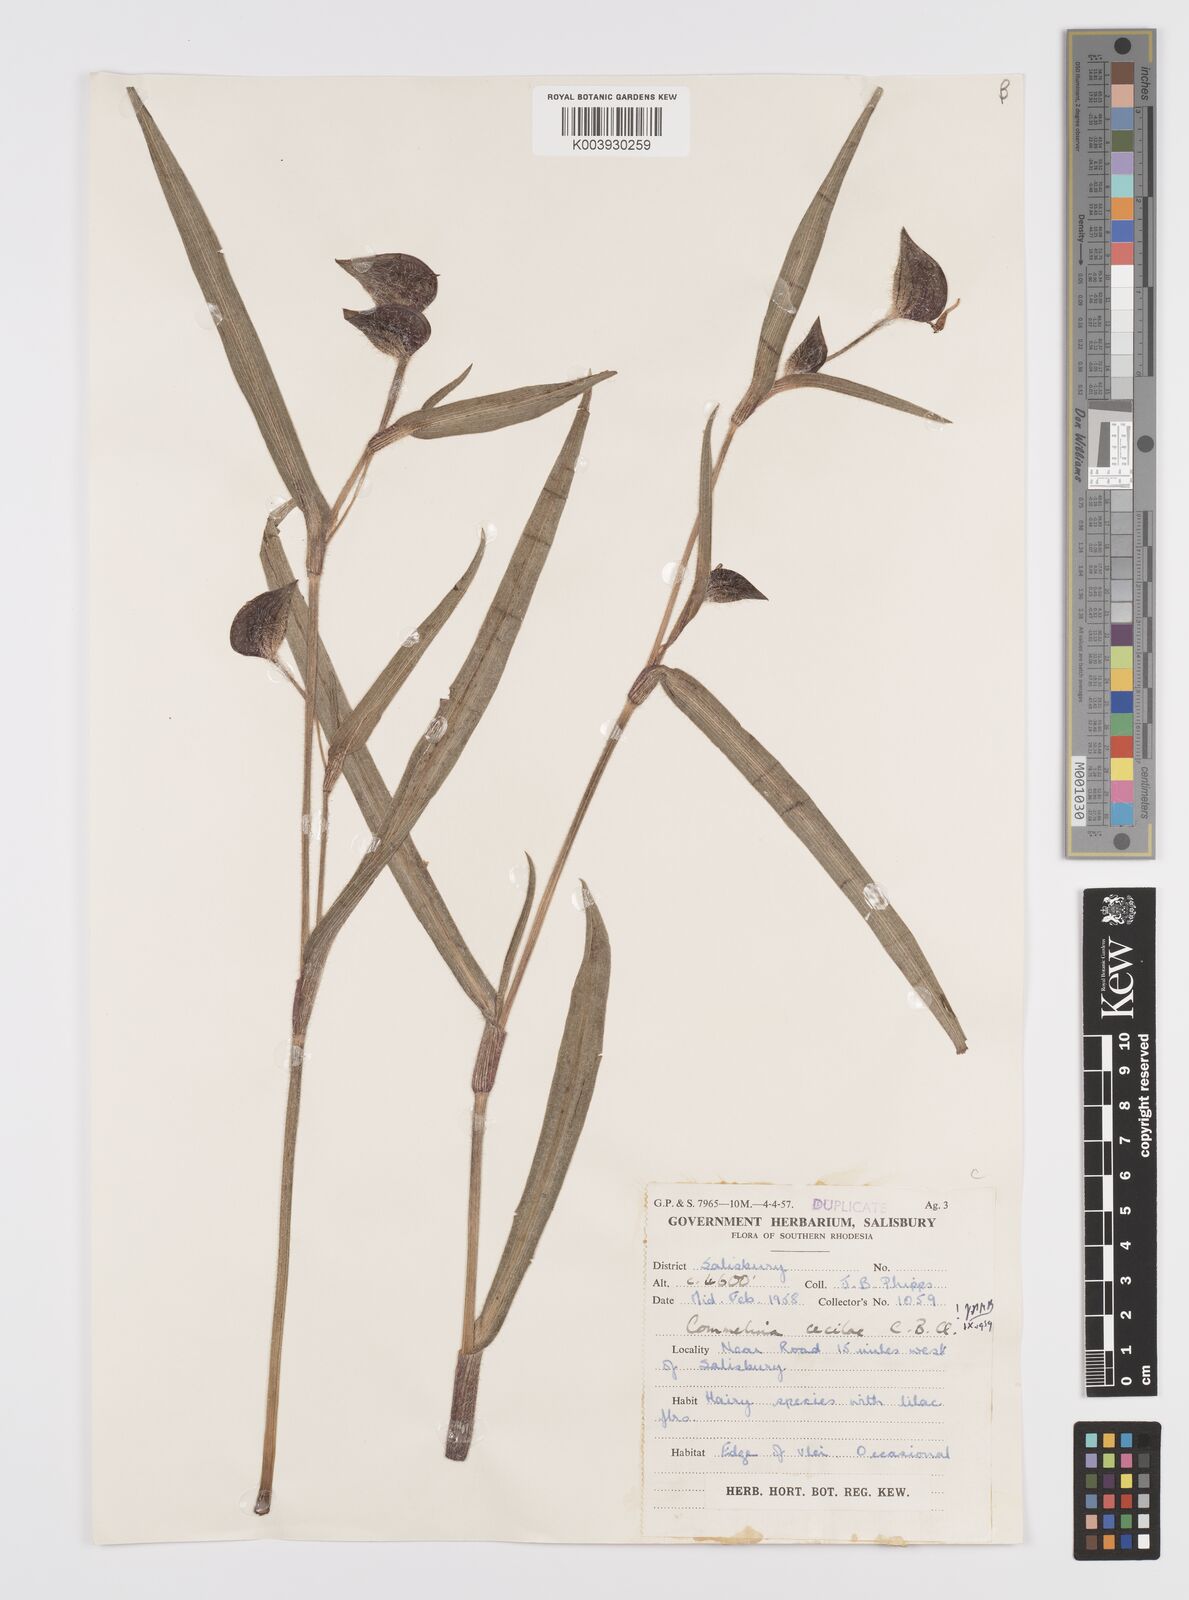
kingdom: Plantae
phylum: Tracheophyta
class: Liliopsida
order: Commelinales
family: Commelinaceae
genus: Commelina
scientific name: Commelina schweinfurthii
